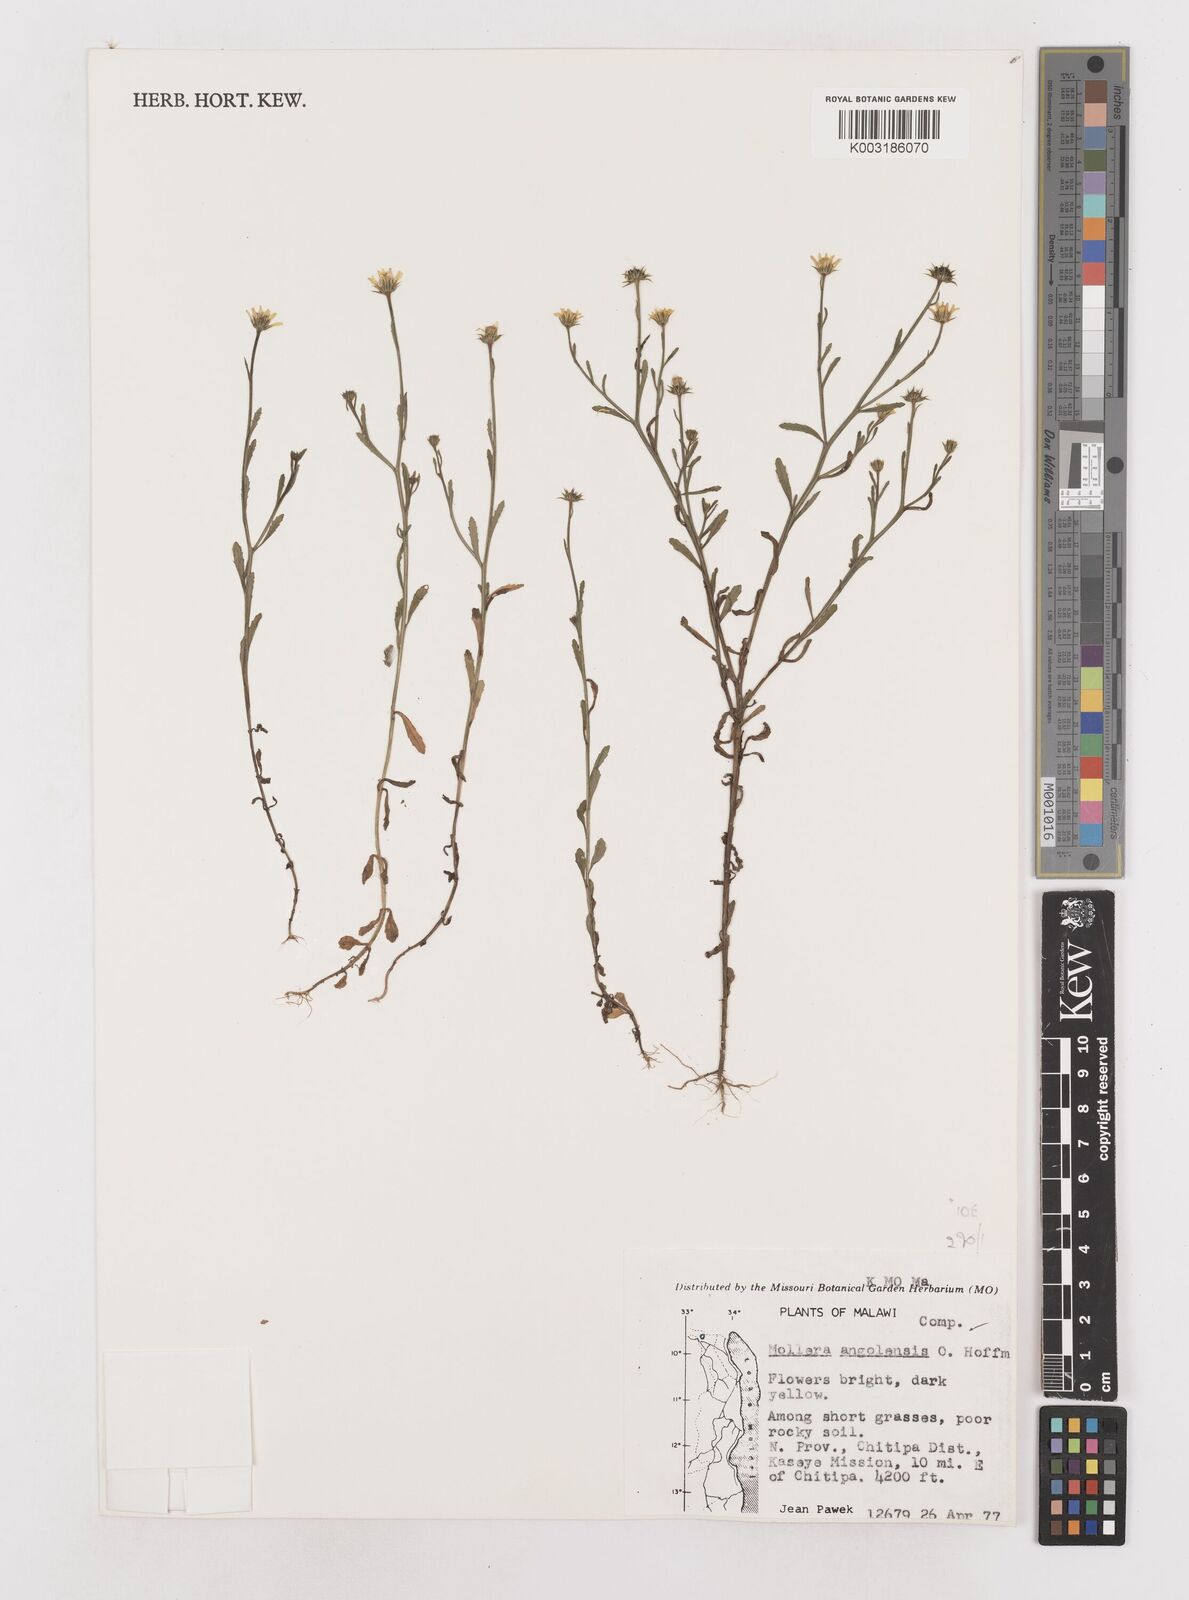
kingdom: Plantae
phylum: Tracheophyta
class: Magnoliopsida
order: Asterales
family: Asteraceae
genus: Calostephane
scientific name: Calostephane angolensis
